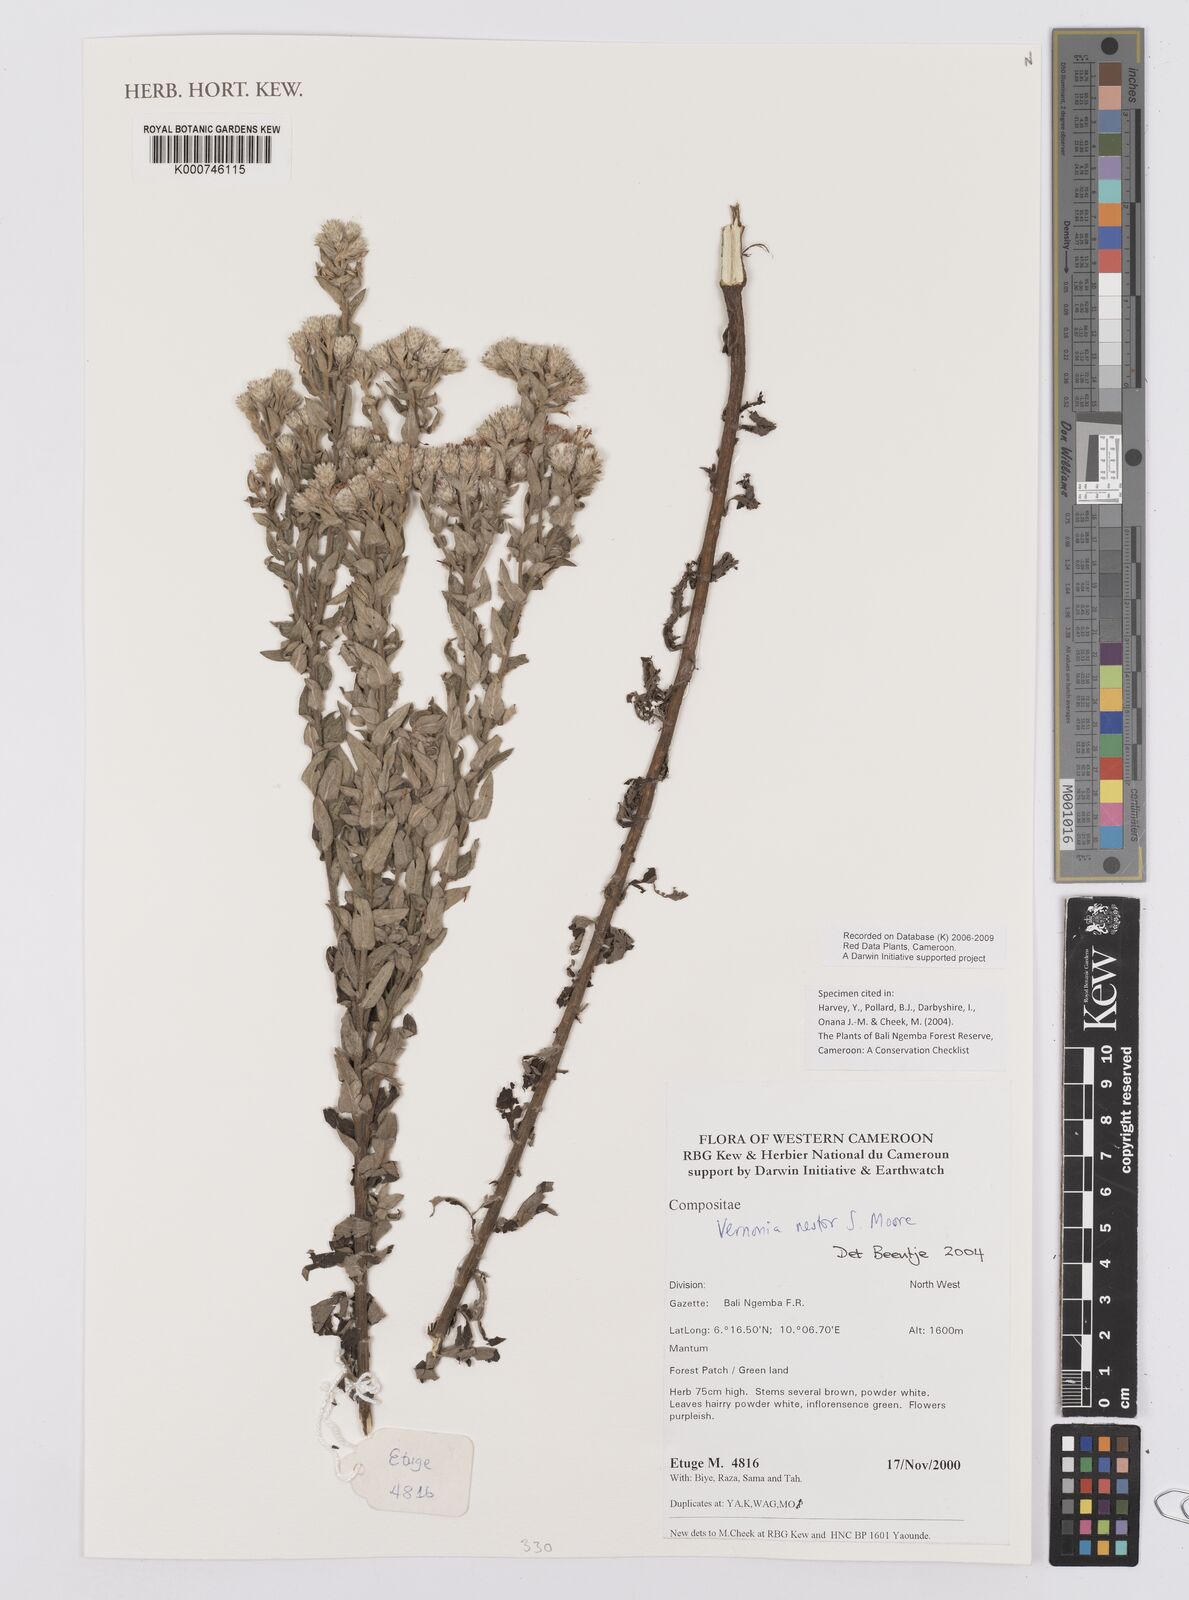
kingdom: Plantae
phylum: Tracheophyta
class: Magnoliopsida
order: Asterales
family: Asteraceae
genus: Vernoniastrum
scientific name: Vernoniastrum nestor
